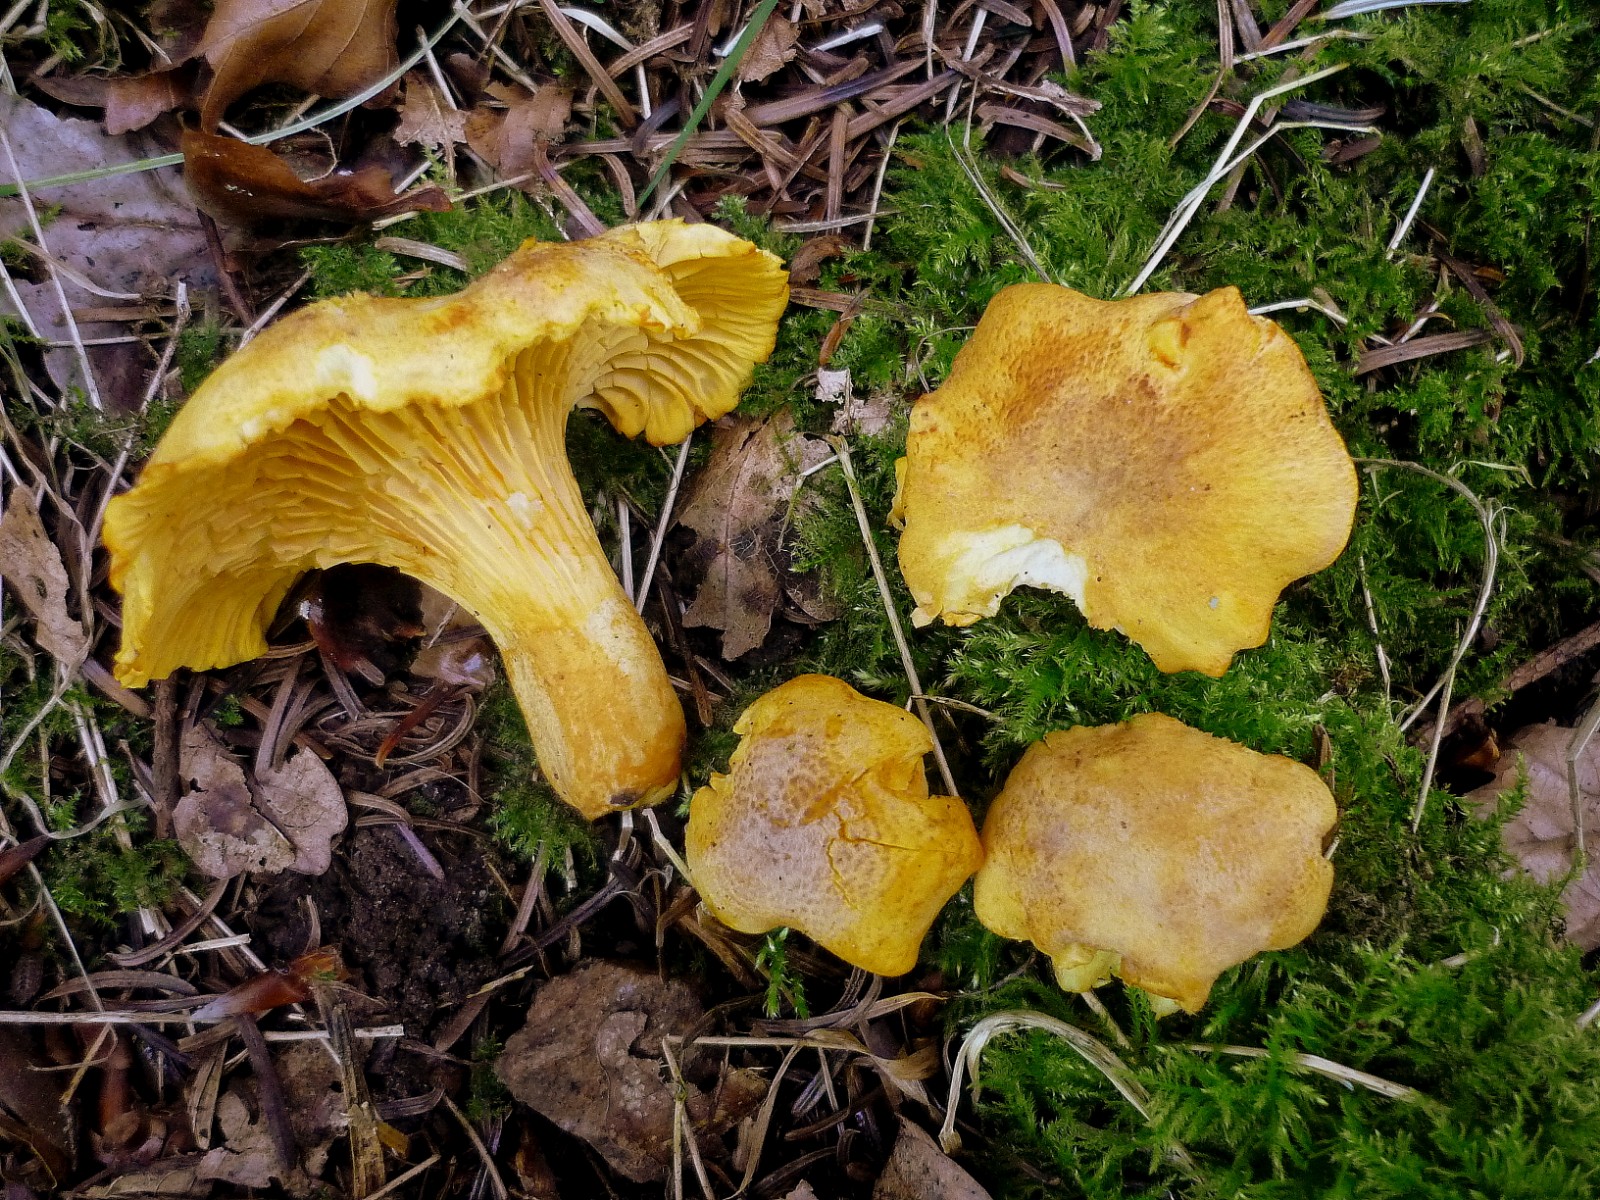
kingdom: Fungi
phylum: Basidiomycota
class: Agaricomycetes
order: Cantharellales
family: Hydnaceae
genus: Cantharellus
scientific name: Cantharellus amethysteus
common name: ametyst-kantarel
